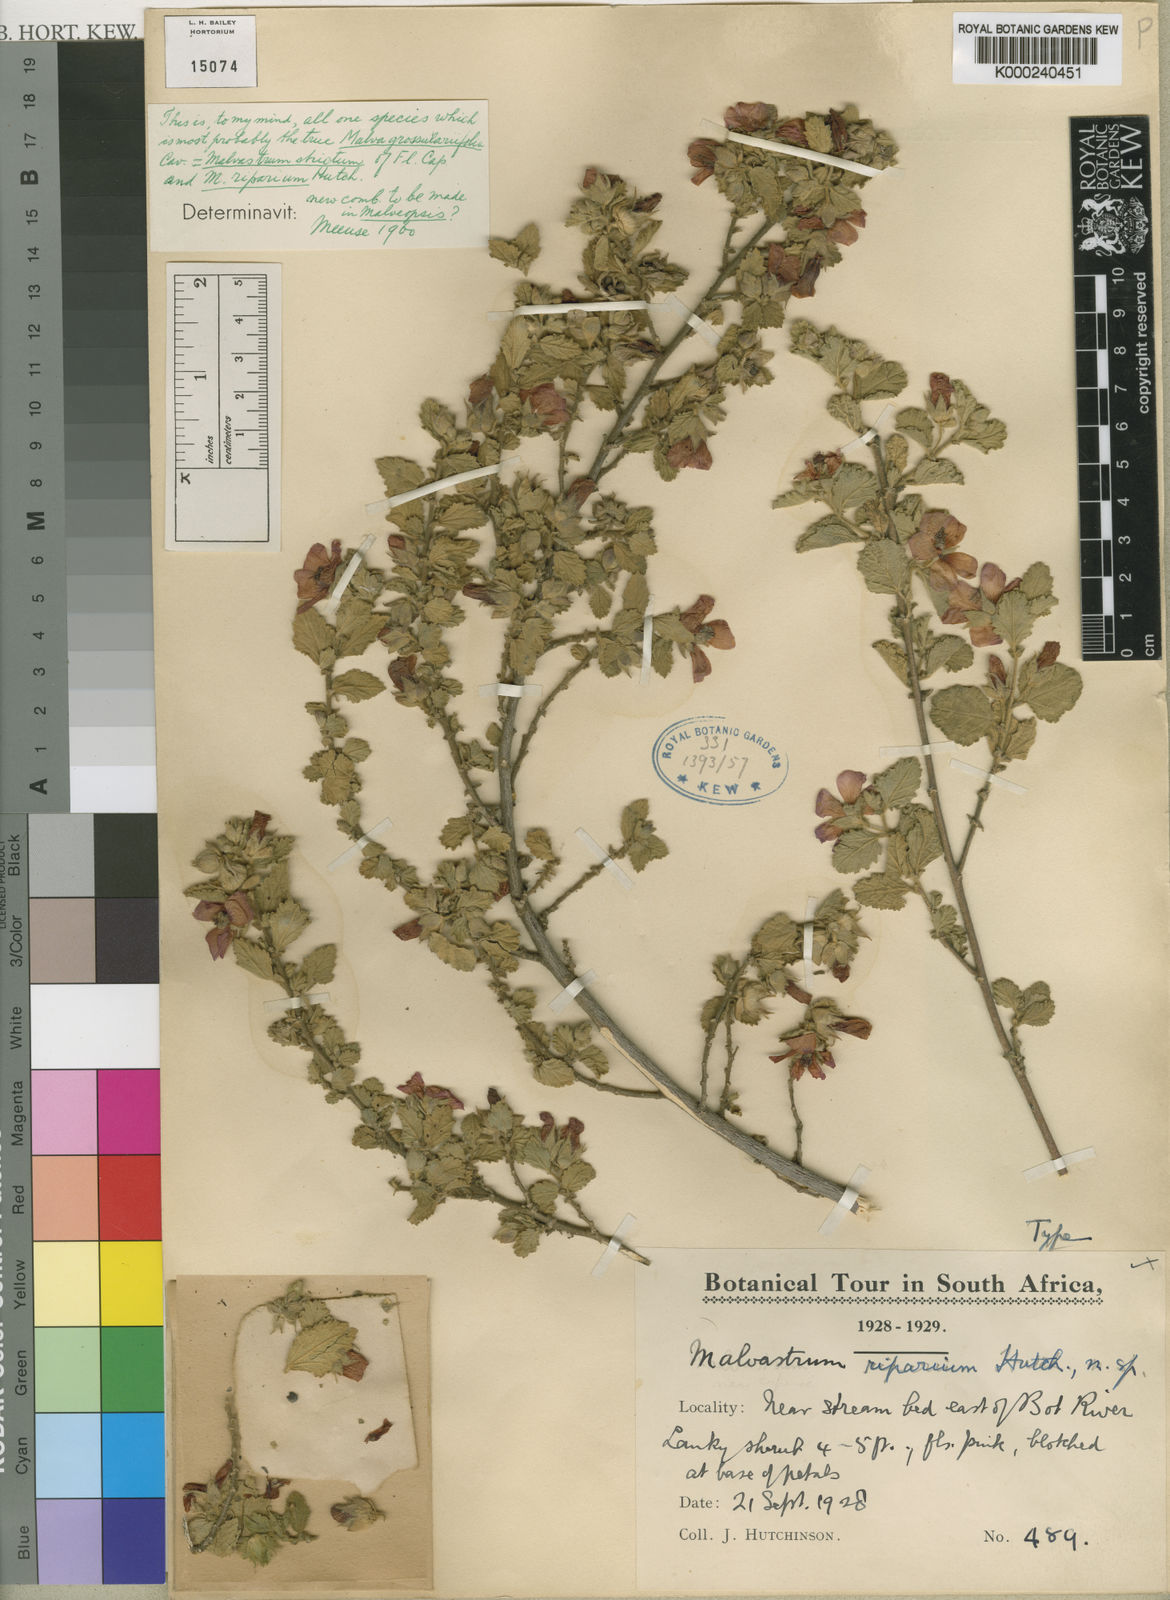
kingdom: Plantae
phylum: Tracheophyta
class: Magnoliopsida
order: Malvales
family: Malvaceae
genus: Anisodontea
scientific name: Anisodontea scabrosa
